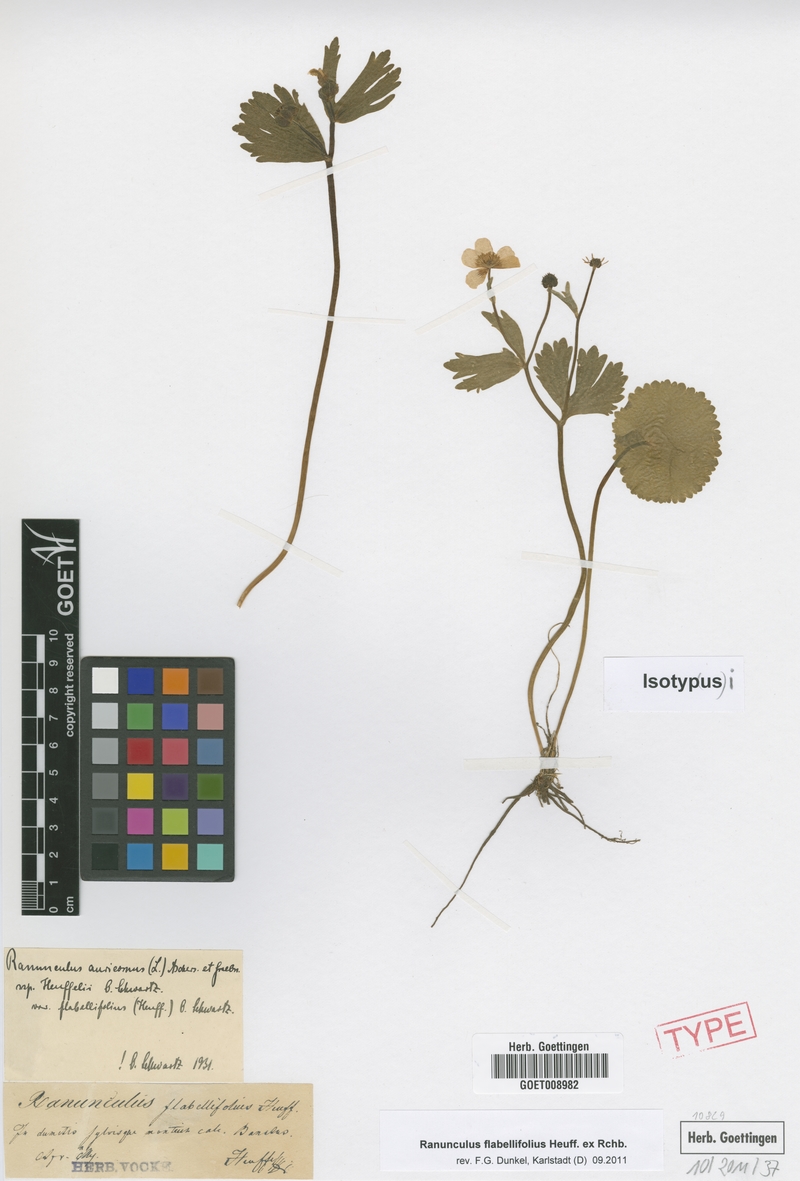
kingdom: Plantae
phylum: Tracheophyta
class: Magnoliopsida
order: Ranunculales
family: Ranunculaceae
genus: Ranunculus
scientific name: Ranunculus flabellifolius
